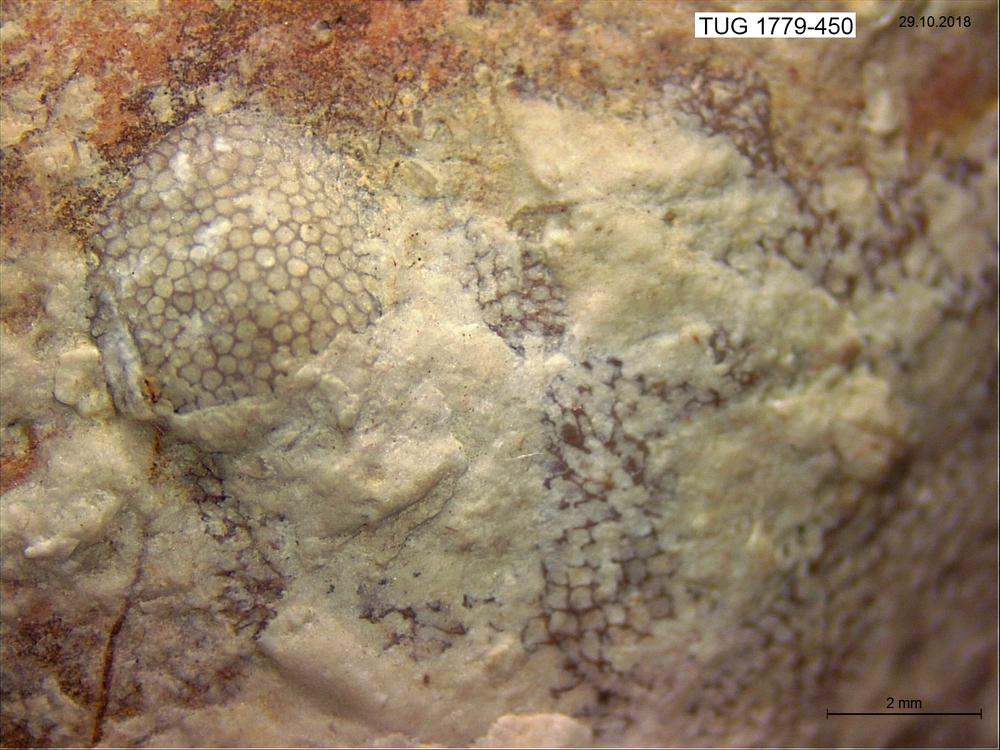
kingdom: Animalia
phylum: Bryozoa
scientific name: Bryozoa
